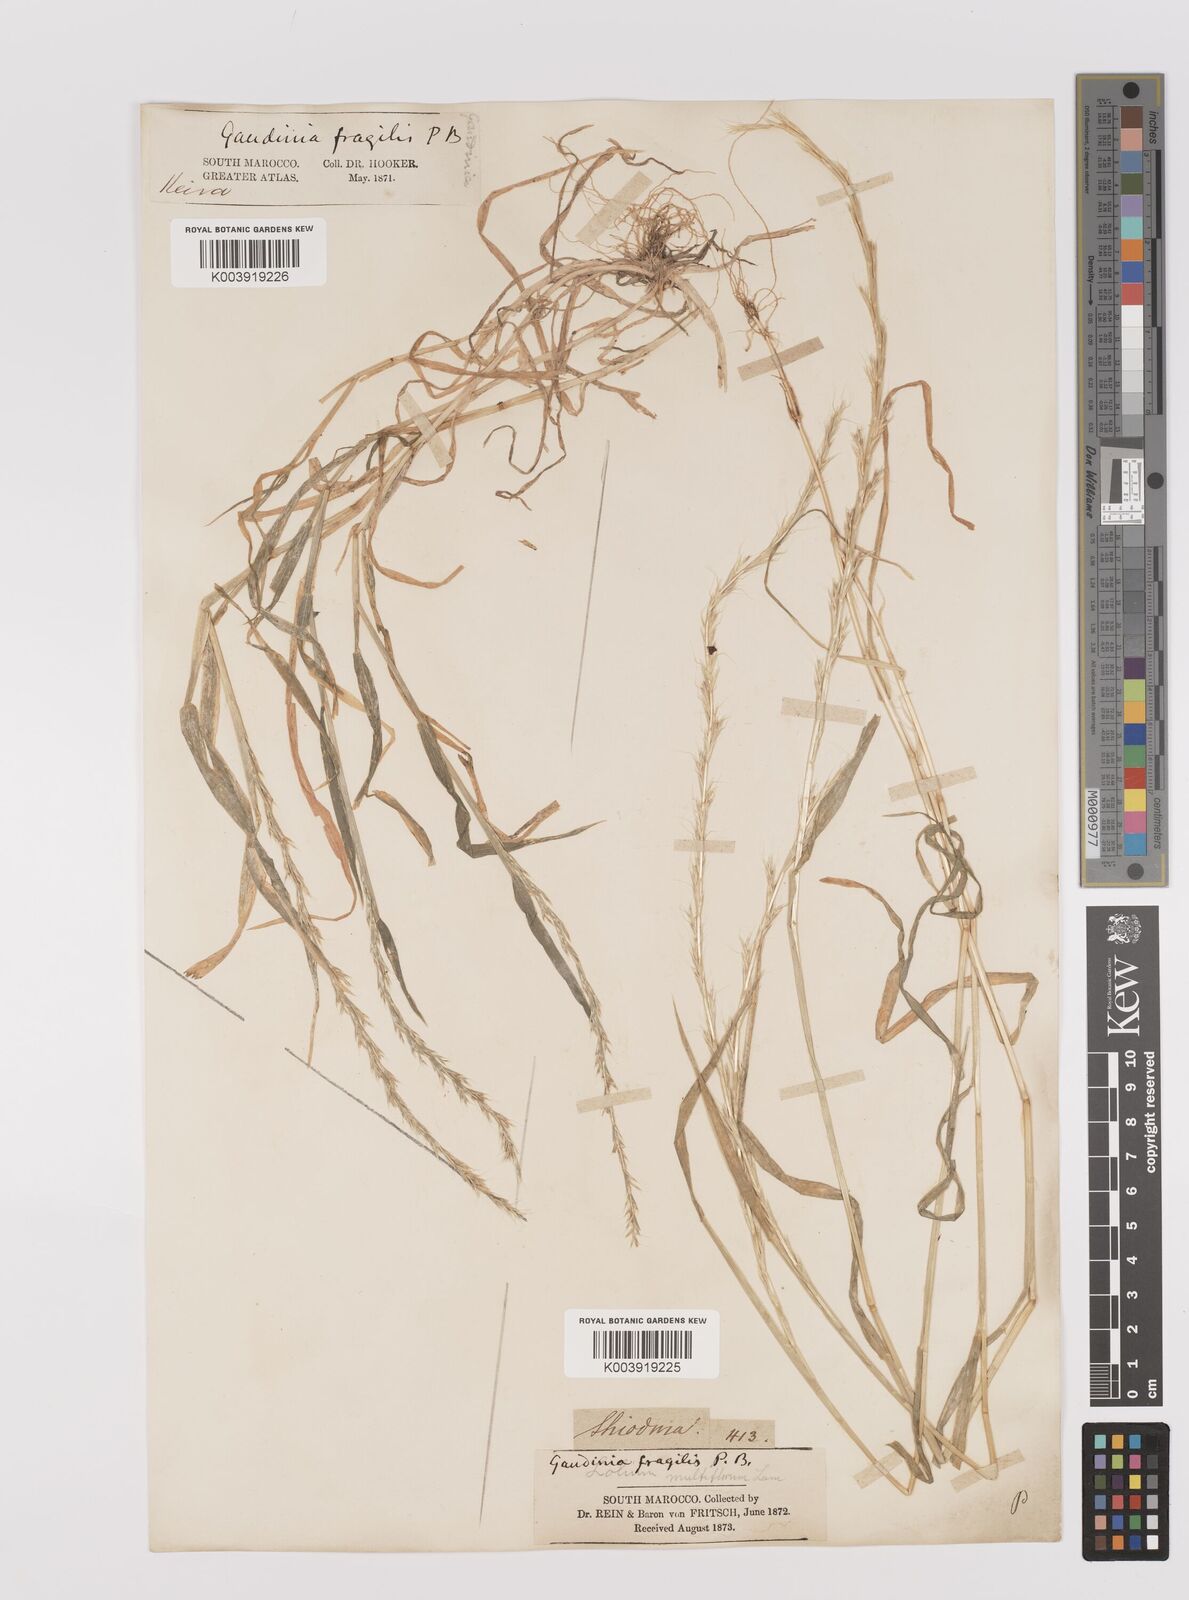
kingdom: Plantae
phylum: Tracheophyta
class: Liliopsida
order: Poales
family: Poaceae
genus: Gaudinia
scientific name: Gaudinia fragilis
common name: French oat-grass
